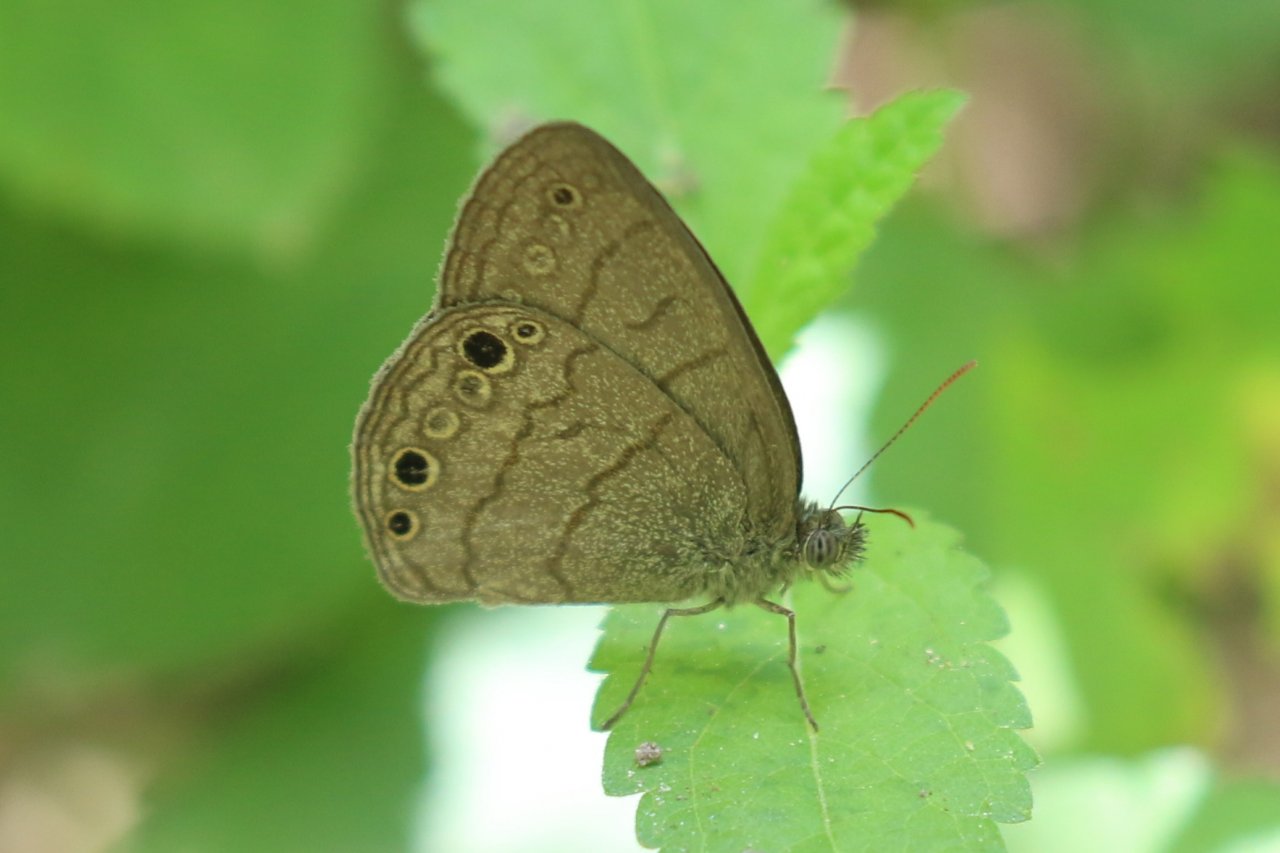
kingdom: Animalia
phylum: Arthropoda
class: Insecta
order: Lepidoptera
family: Nymphalidae
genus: Hermeuptychia
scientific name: Hermeuptychia hermybius
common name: South Texas Satyr
